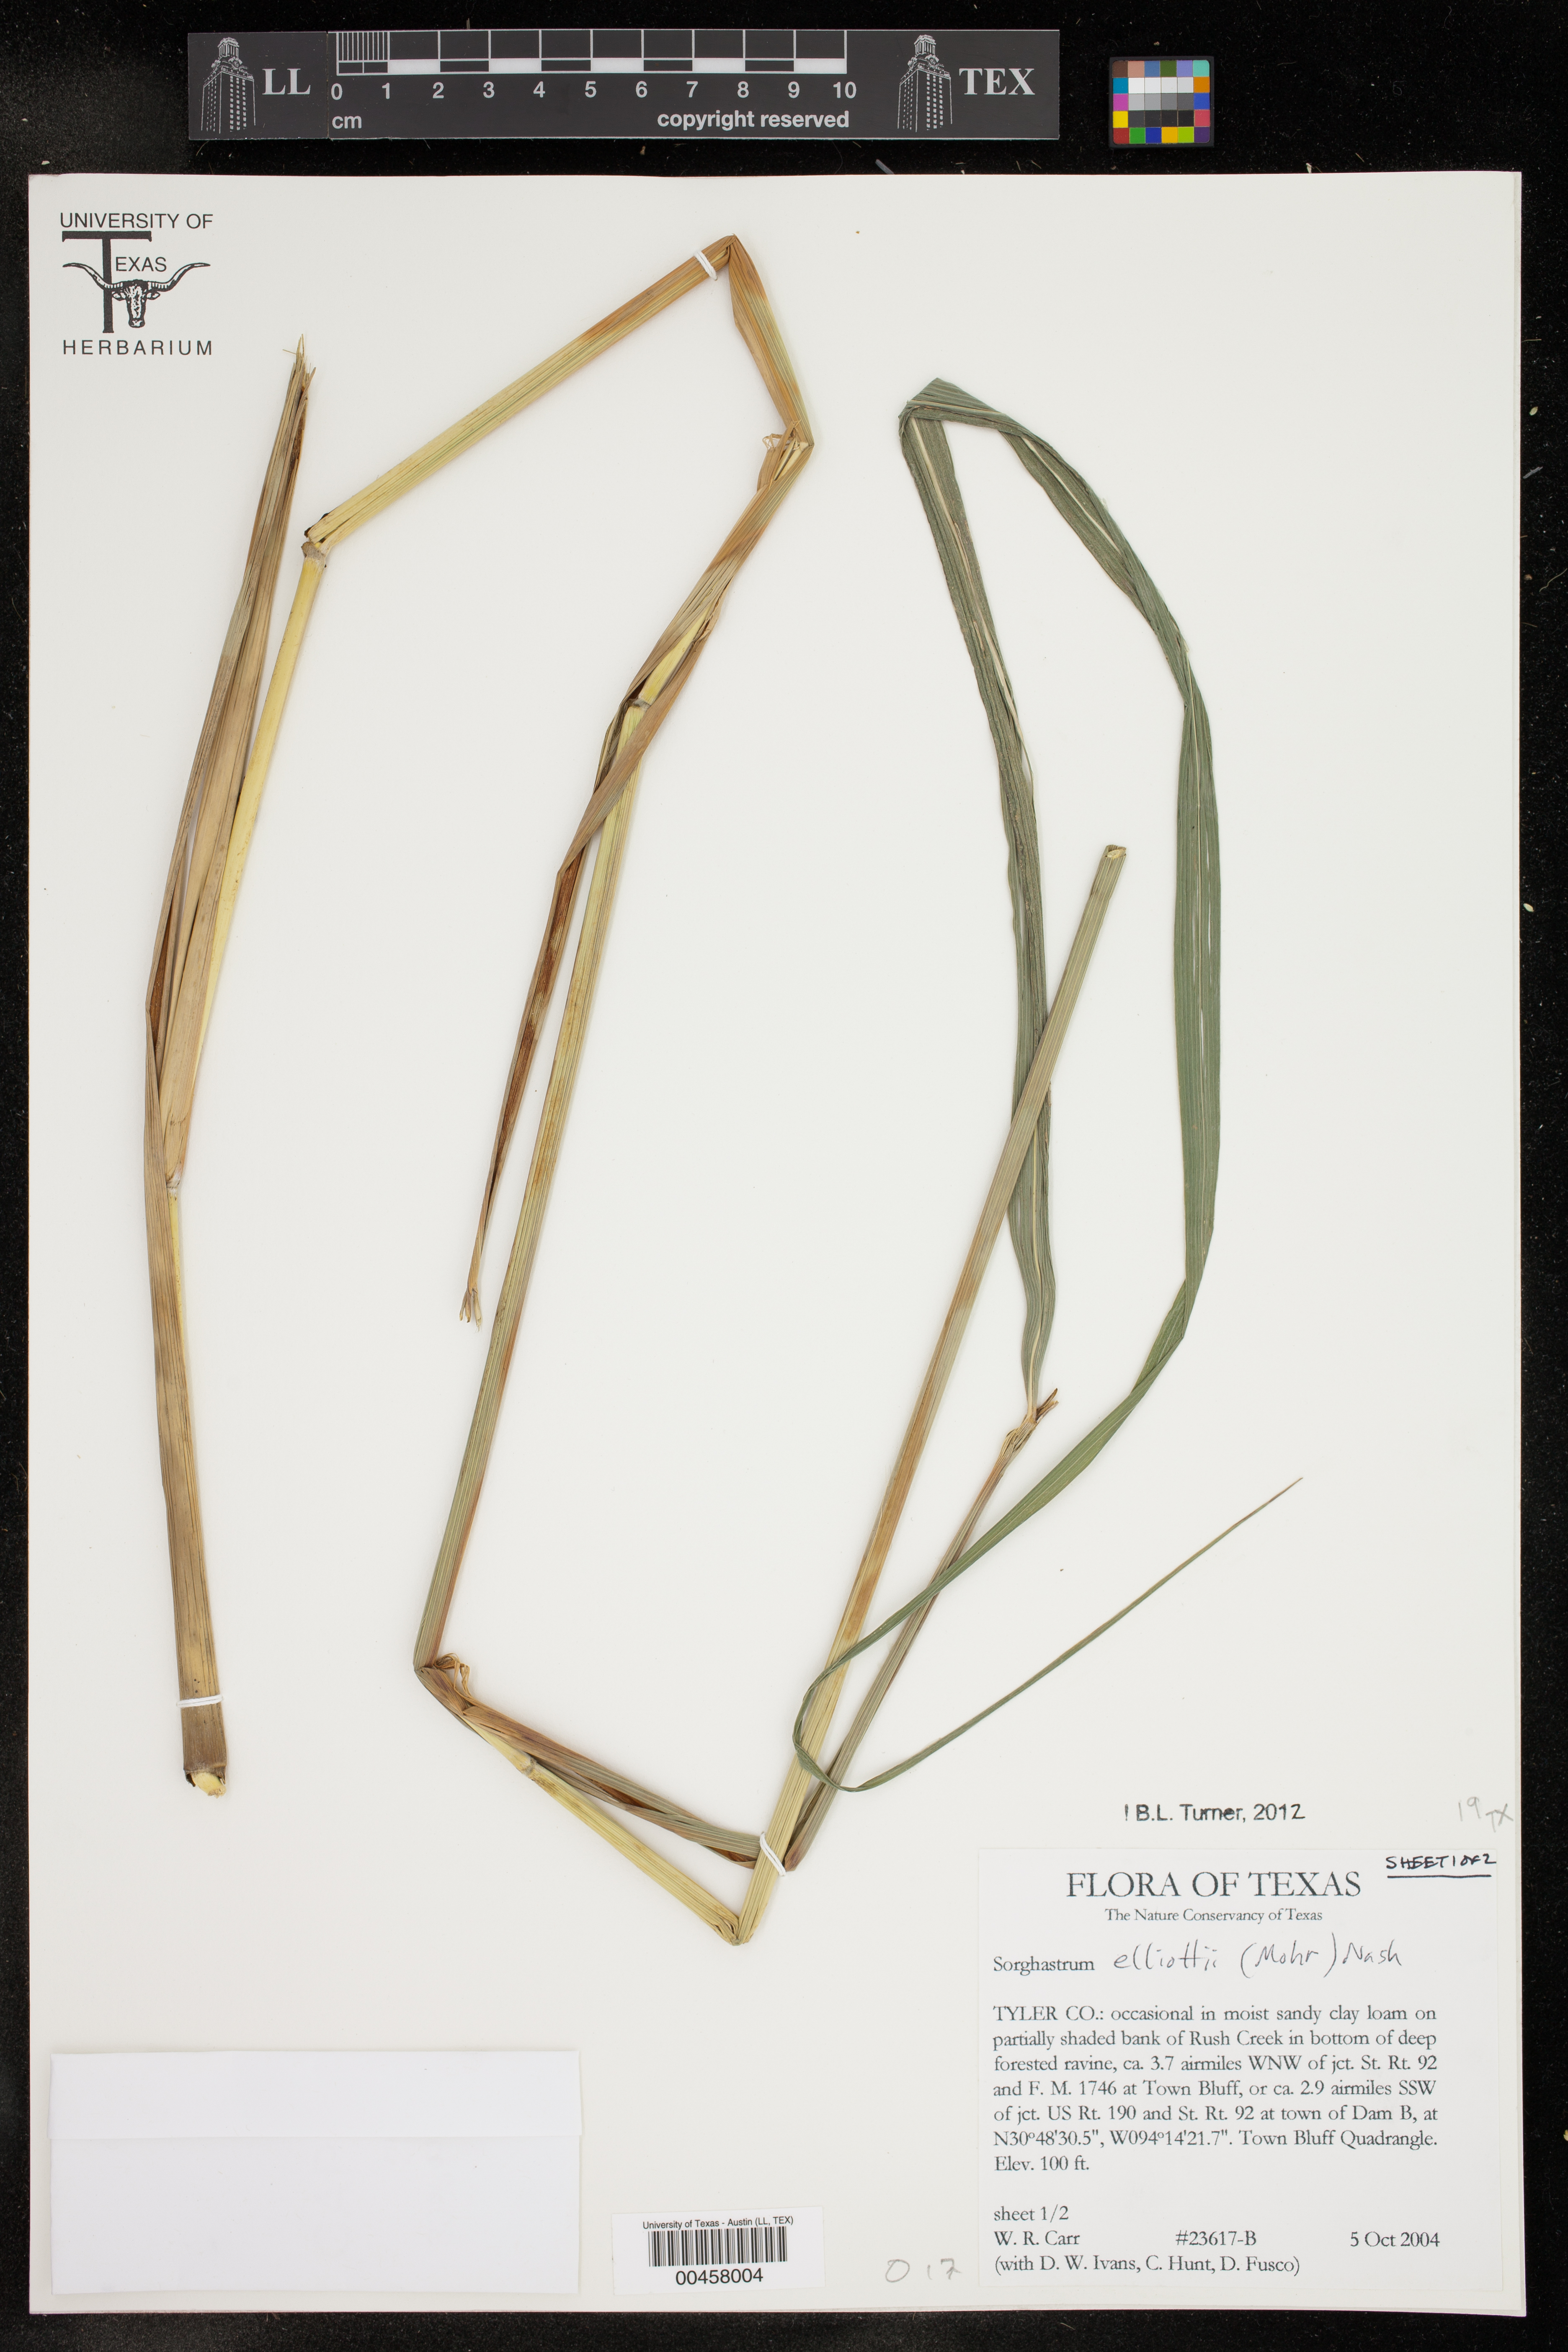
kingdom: Plantae
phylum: Tracheophyta
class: Liliopsida
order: Poales
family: Poaceae
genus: Sorghastrum
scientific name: Sorghastrum elliottii
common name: Slender indian grass
